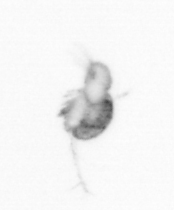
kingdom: Animalia
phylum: Arthropoda
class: Copepoda
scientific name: Copepoda
